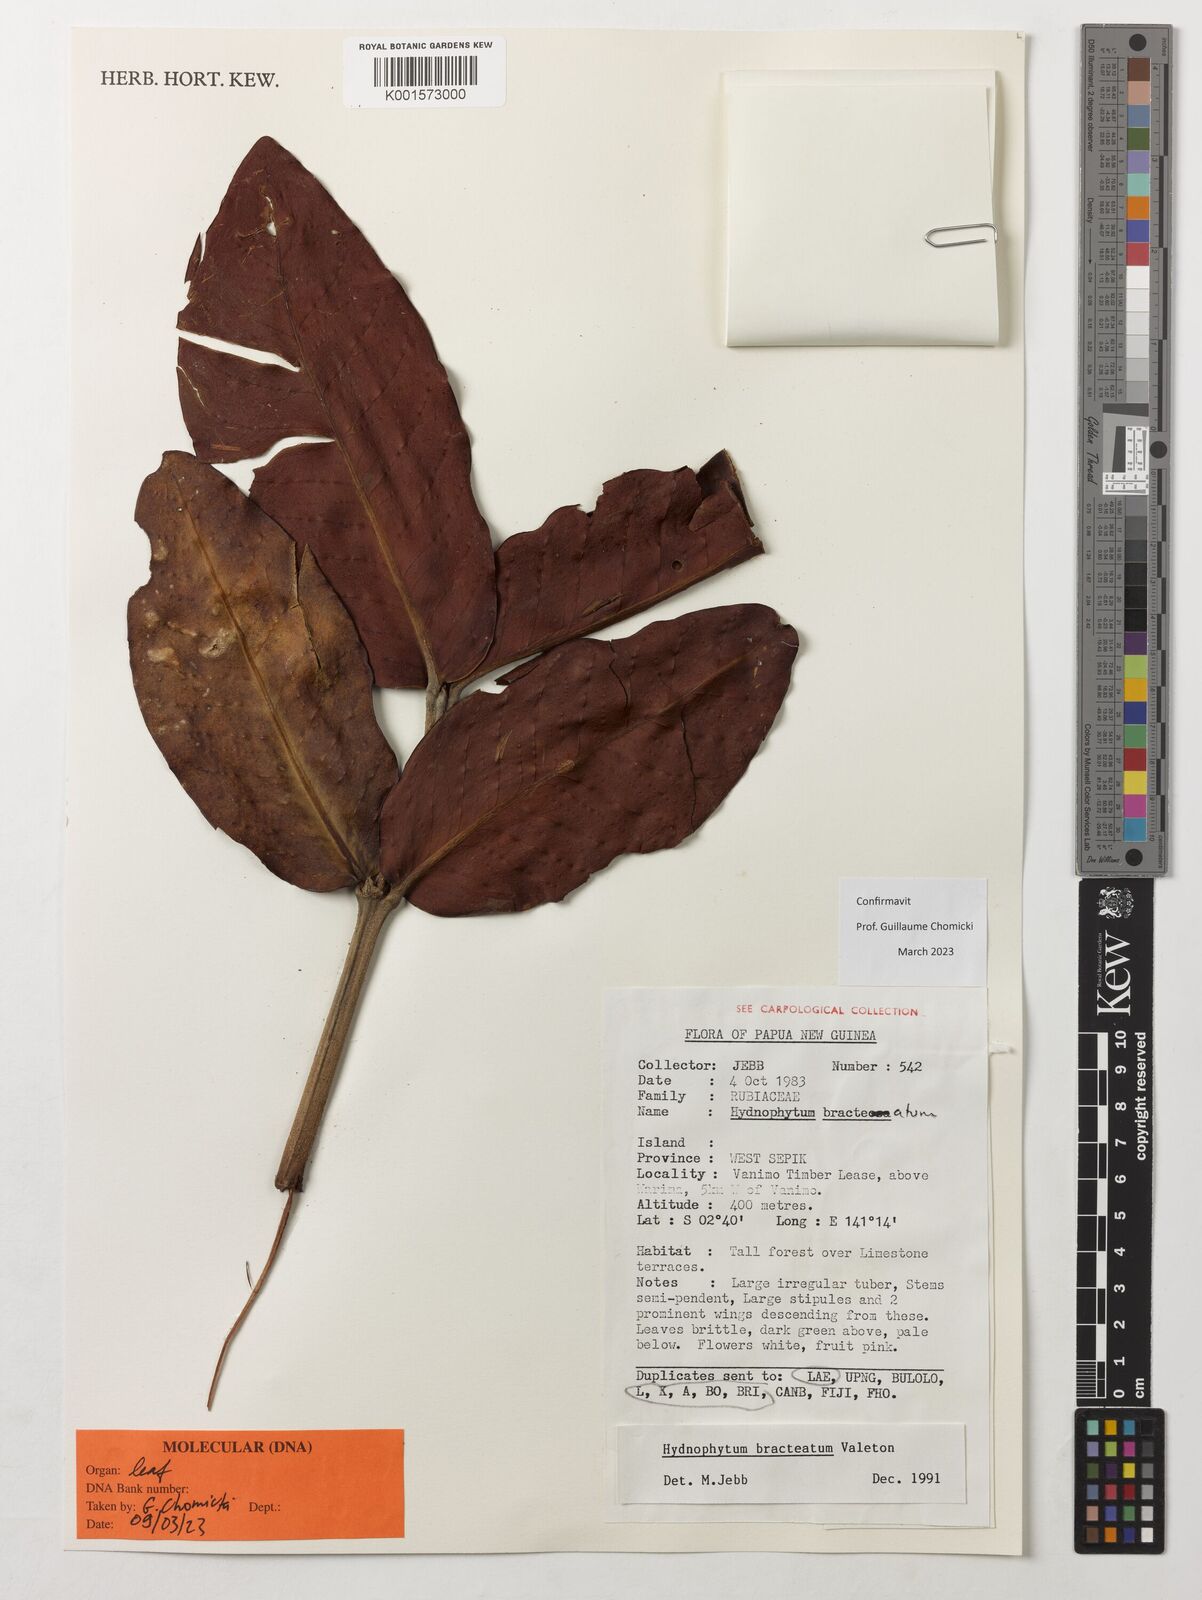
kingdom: Plantae
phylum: Tracheophyta
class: Magnoliopsida
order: Gentianales
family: Rubiaceae
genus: Hydnophytum
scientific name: Hydnophytum bracteatum
